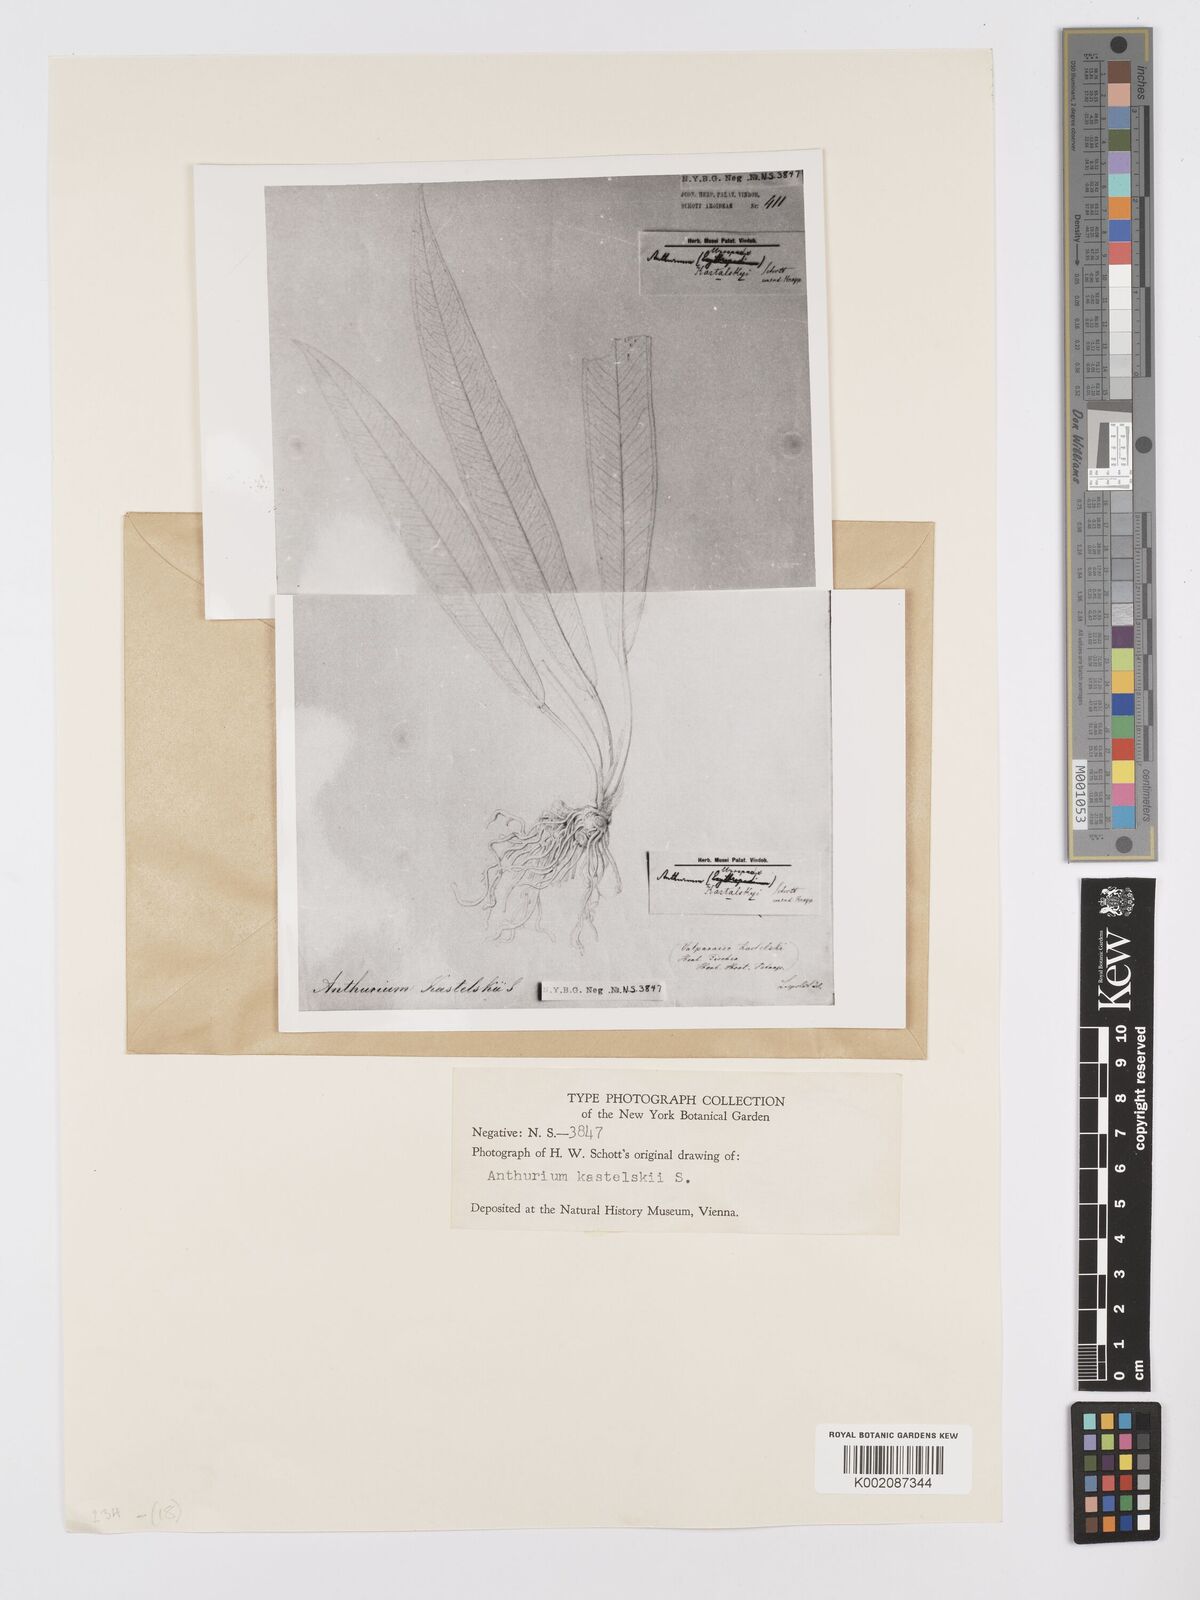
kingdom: Plantae
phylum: Tracheophyta
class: Liliopsida
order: Alismatales
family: Araceae
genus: Anthurium
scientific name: Anthurium kastelskii
